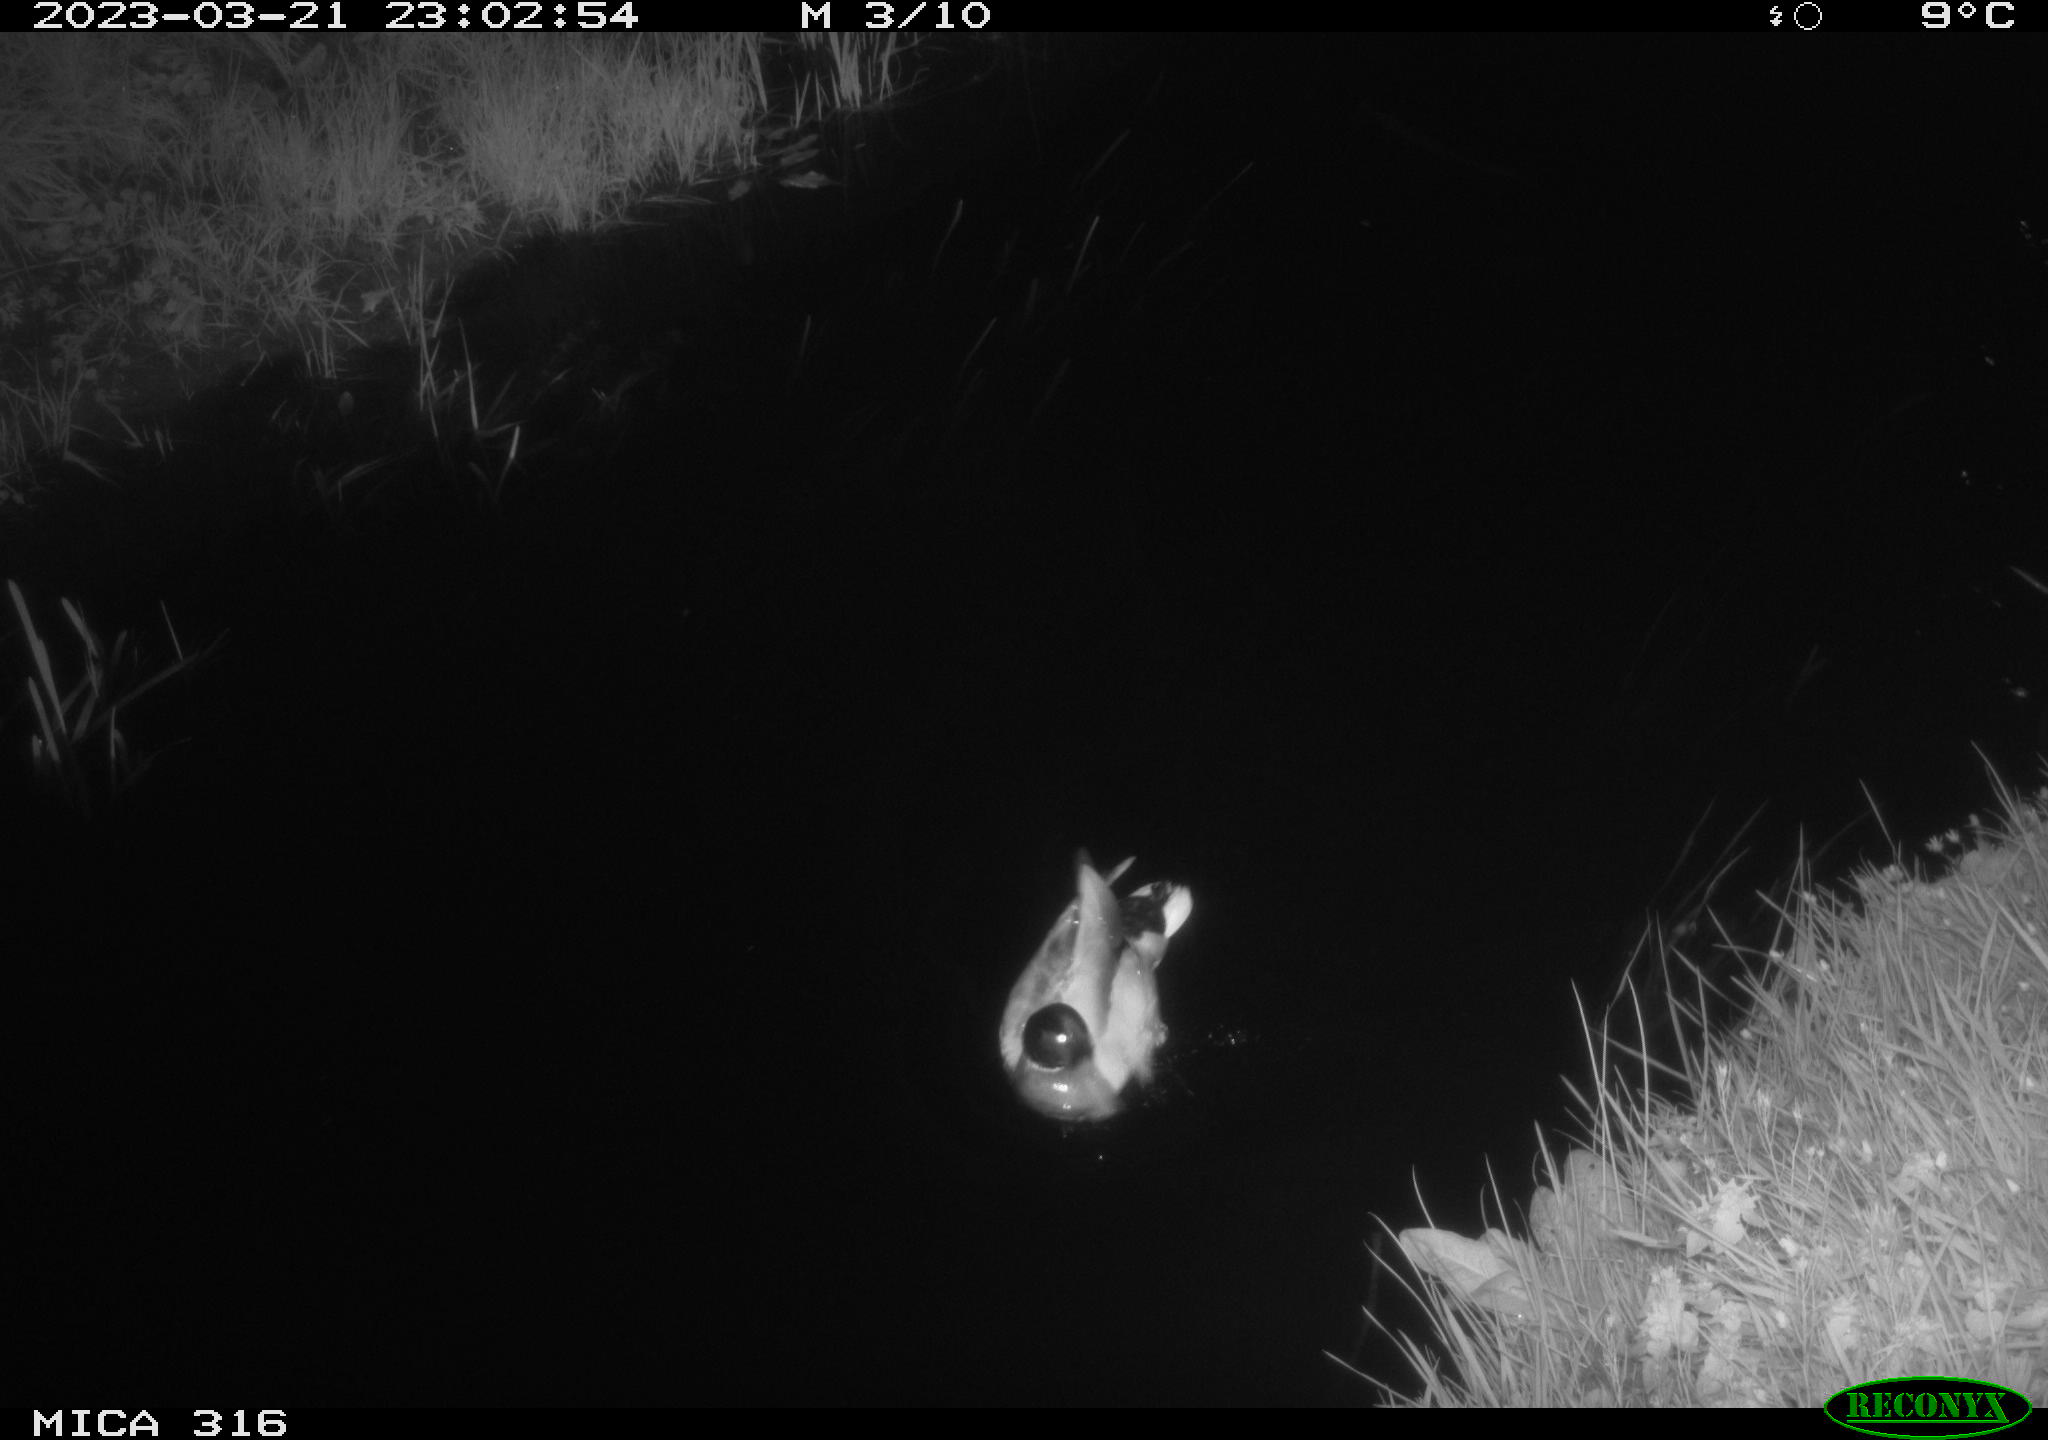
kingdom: Animalia
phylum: Chordata
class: Aves
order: Anseriformes
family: Anatidae
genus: Anas
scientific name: Anas
